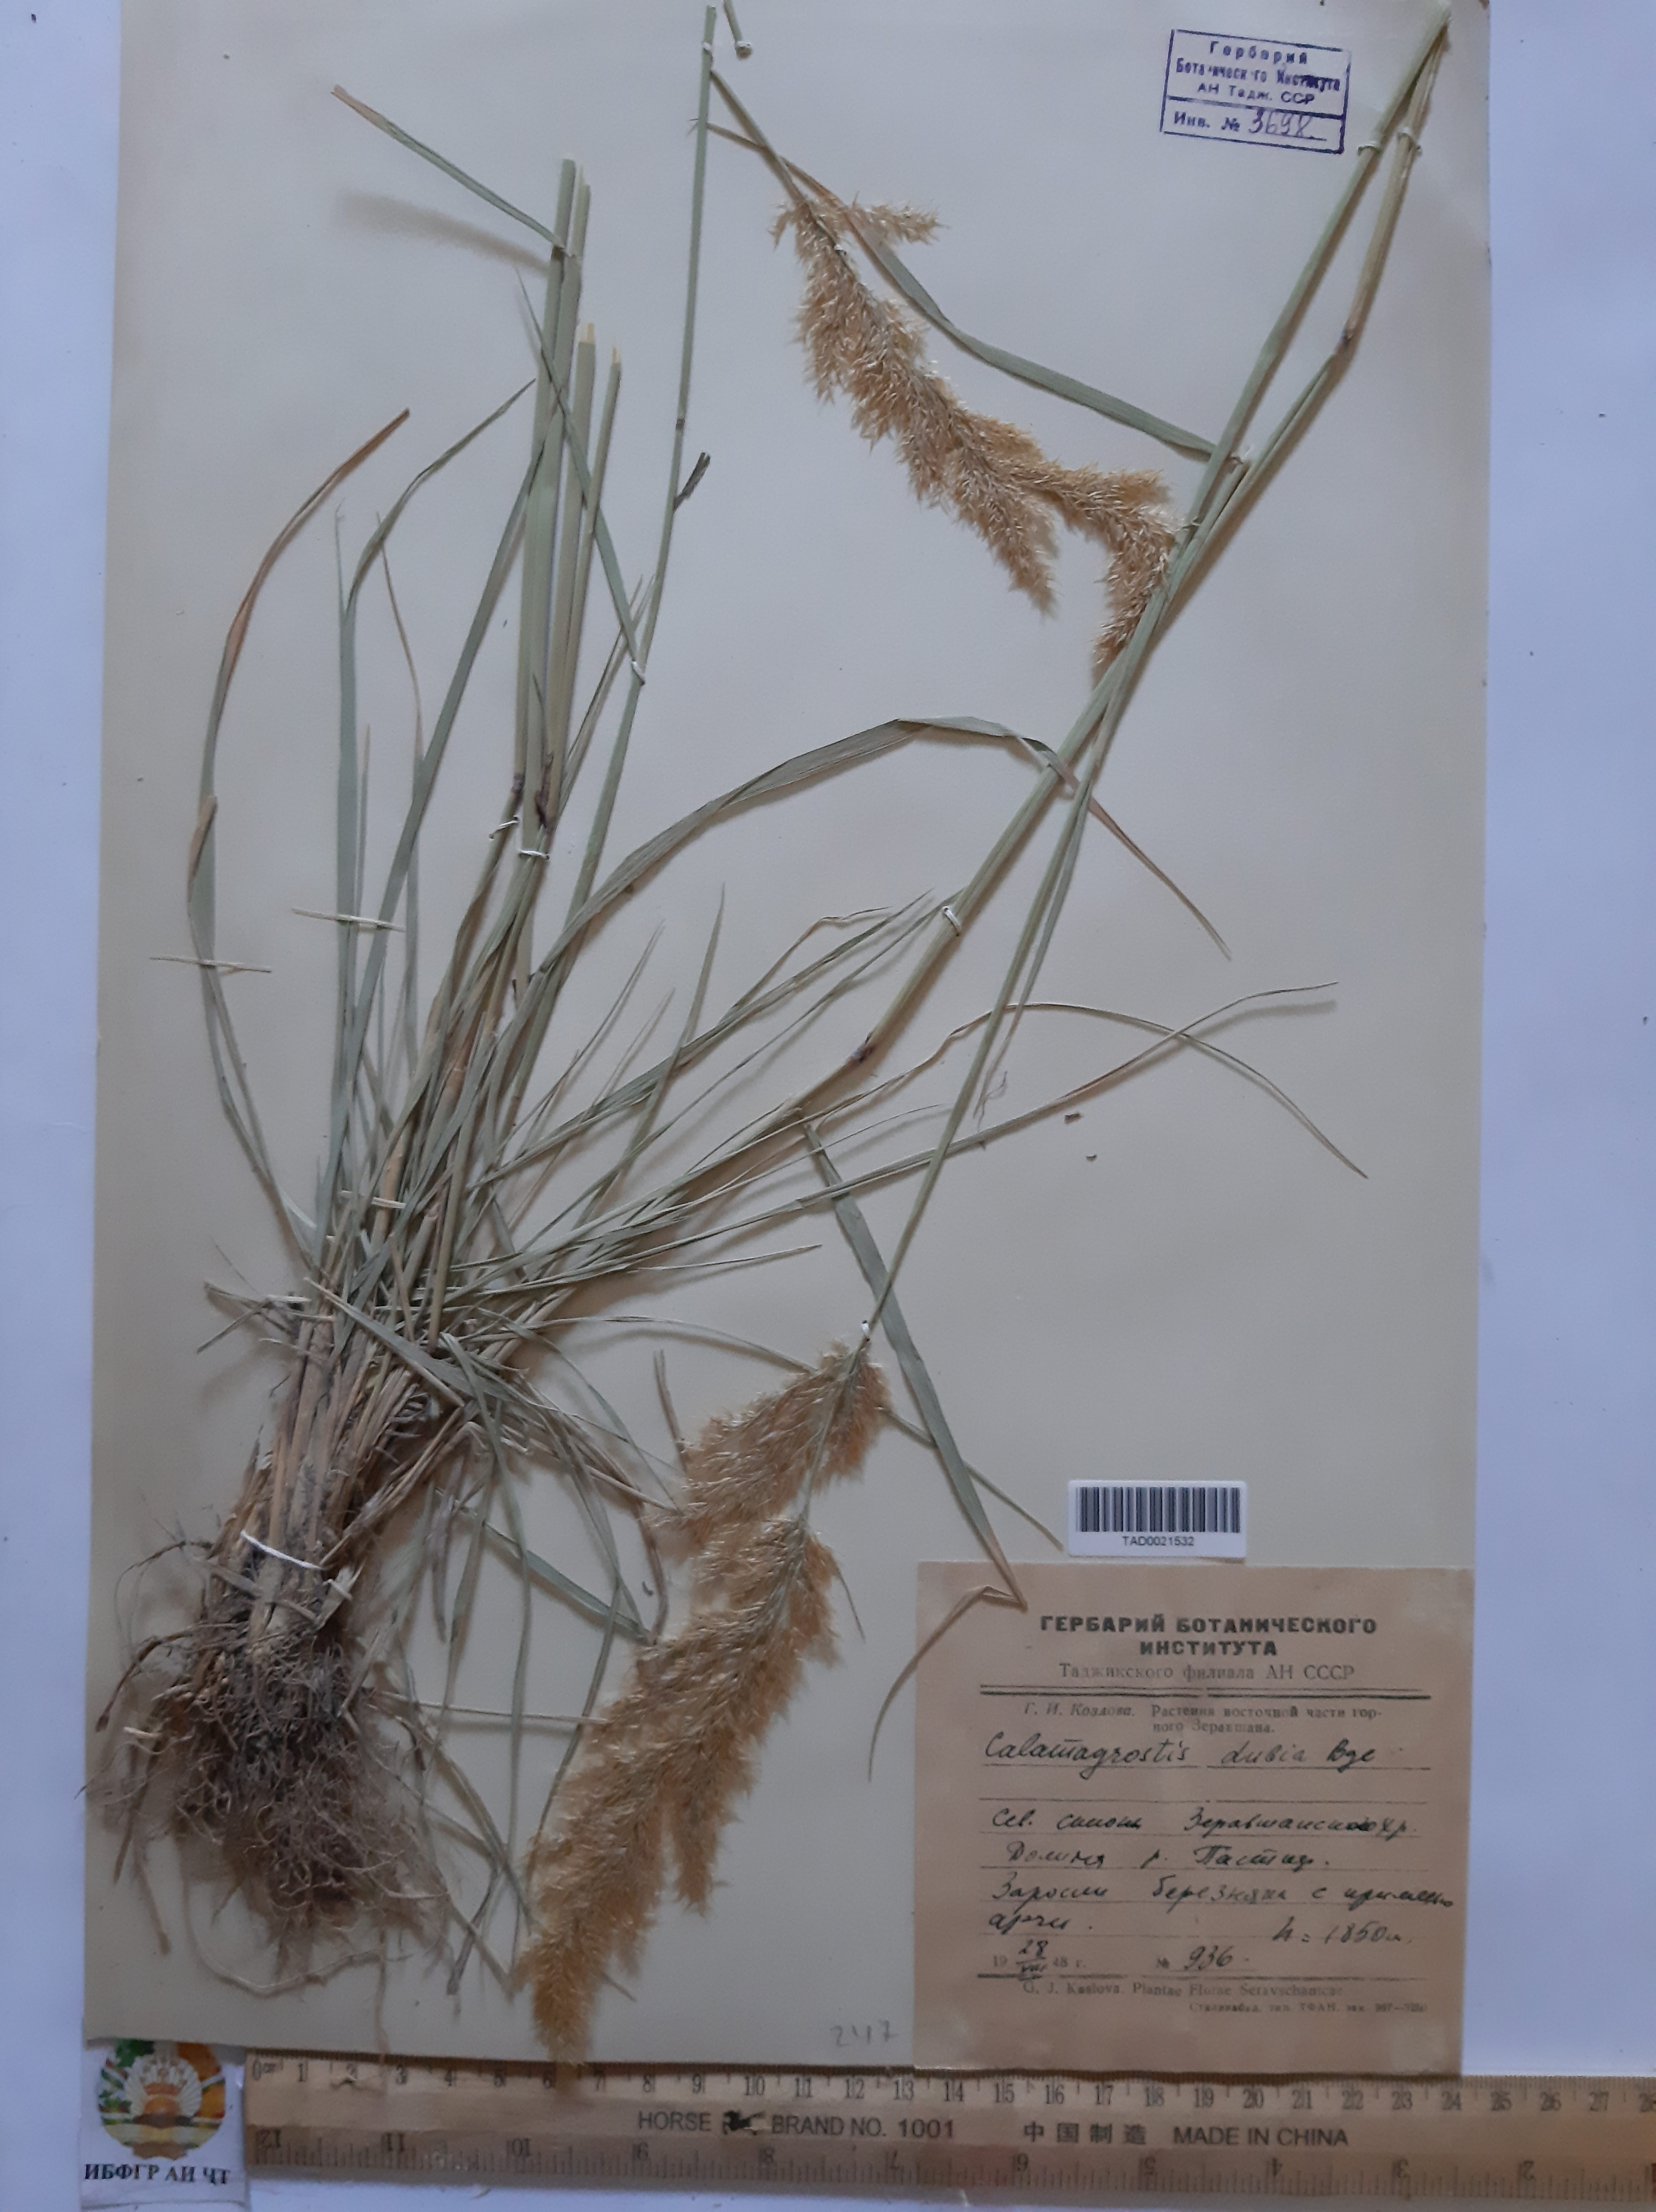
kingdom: Plantae
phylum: Tracheophyta
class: Liliopsida
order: Poales
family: Poaceae
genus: Calamagrostis
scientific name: Calamagrostis pseudophragmites
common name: Coastal small-reed
